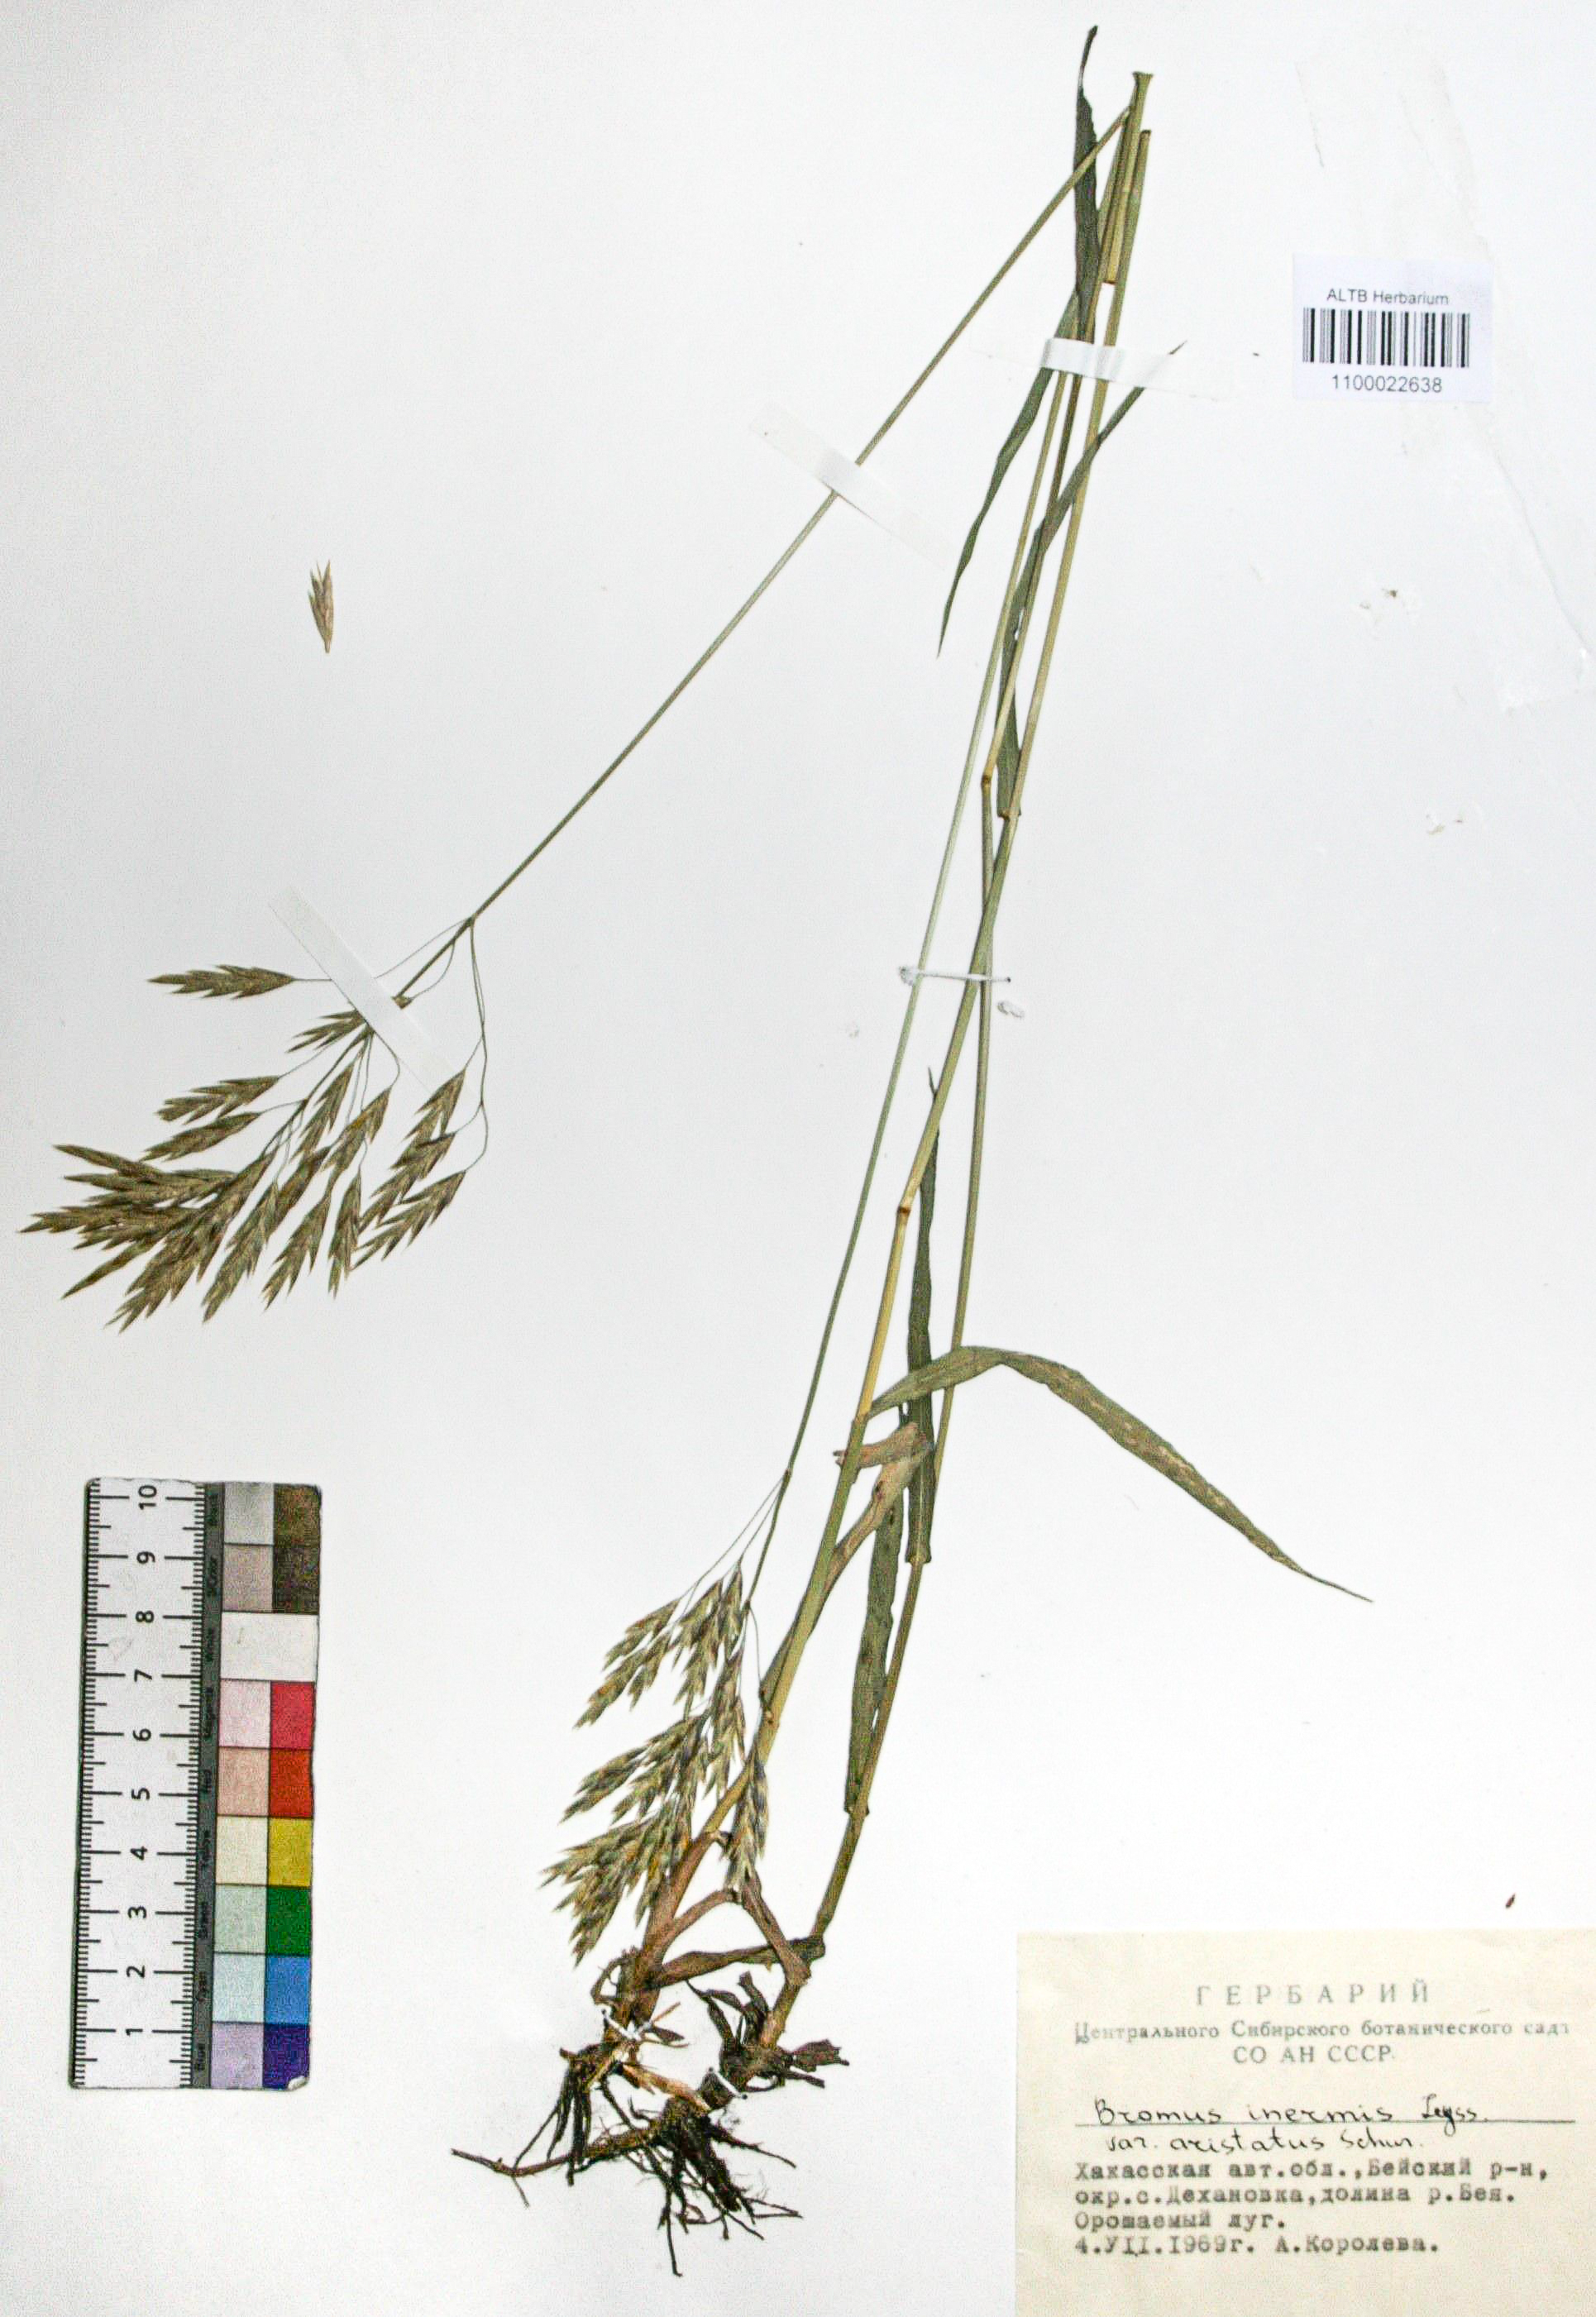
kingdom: Plantae
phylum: Tracheophyta
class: Liliopsida
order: Poales
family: Poaceae
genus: Bromus
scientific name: Bromus inermis
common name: Smooth brome
